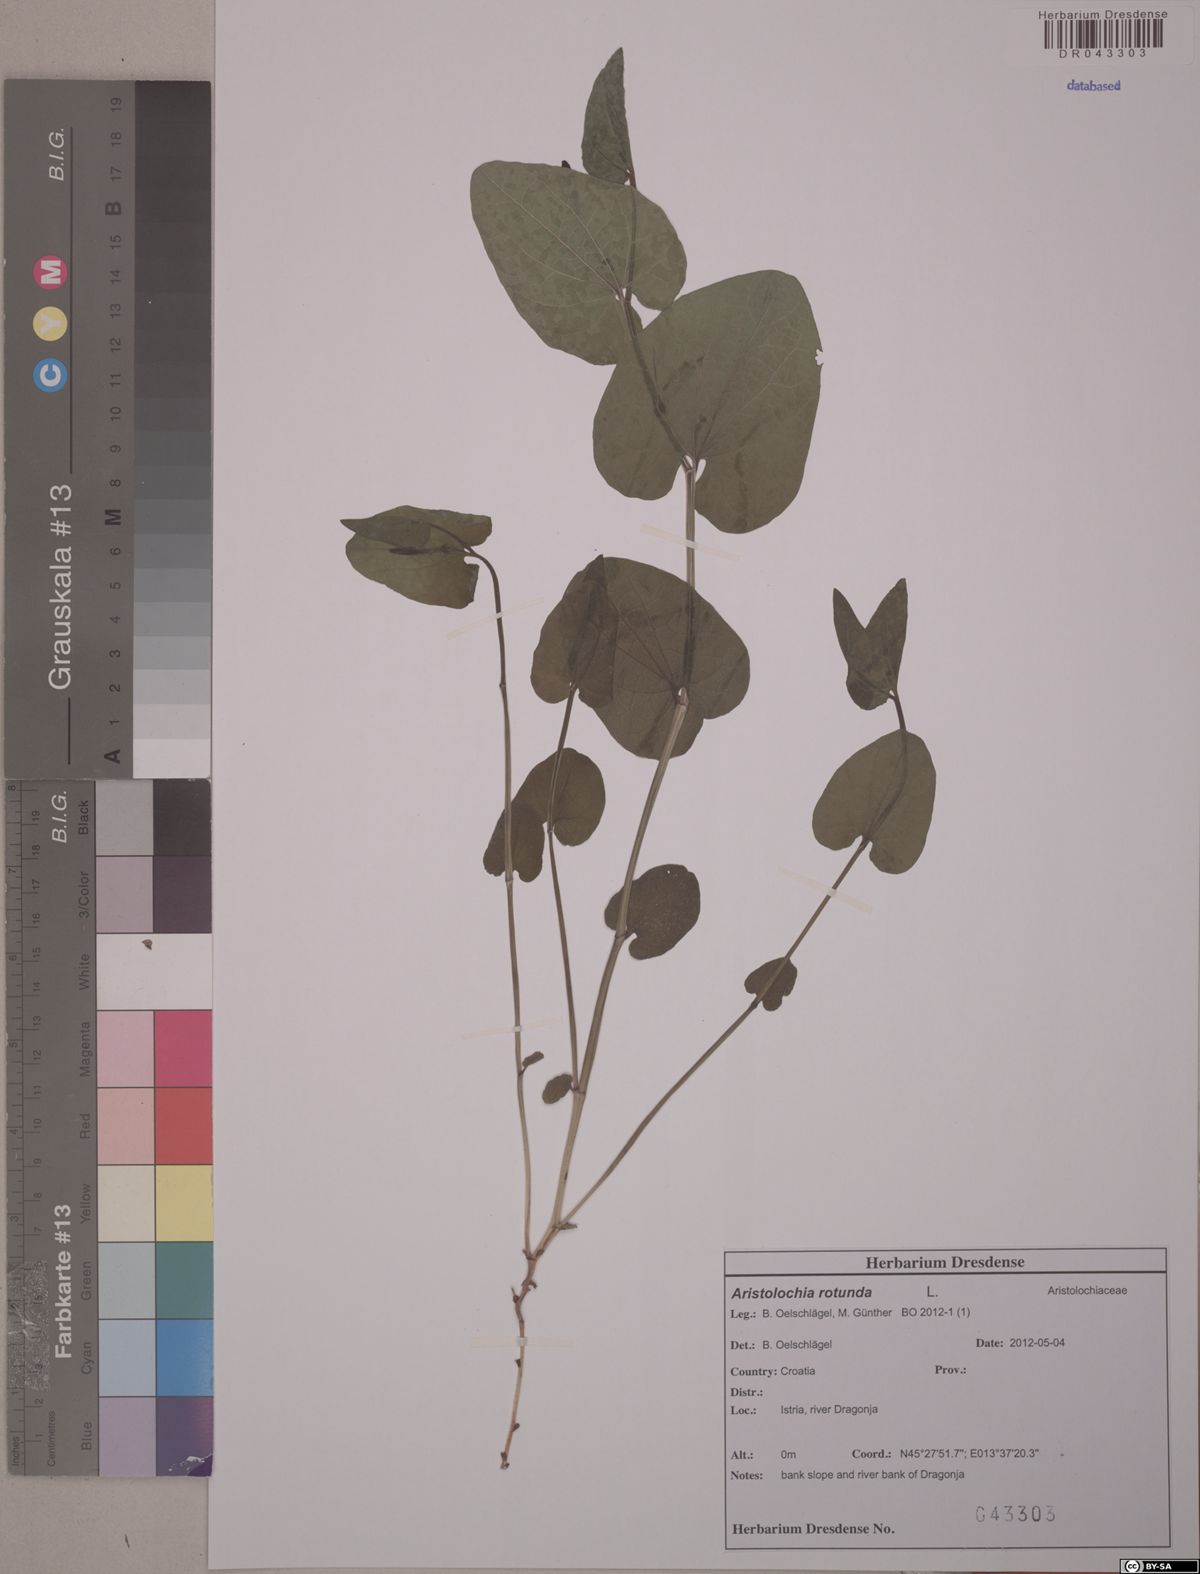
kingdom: Plantae
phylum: Tracheophyta
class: Magnoliopsida
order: Piperales
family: Aristolochiaceae
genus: Aristolochia
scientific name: Aristolochia rotunda
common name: Smearwort
